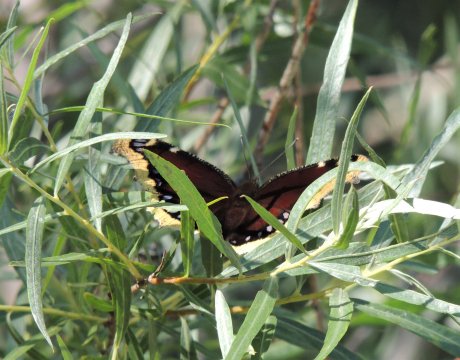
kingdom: Animalia
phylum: Arthropoda
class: Insecta
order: Lepidoptera
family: Nymphalidae
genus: Nymphalis
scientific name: Nymphalis antiopa
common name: Mourning Cloak
